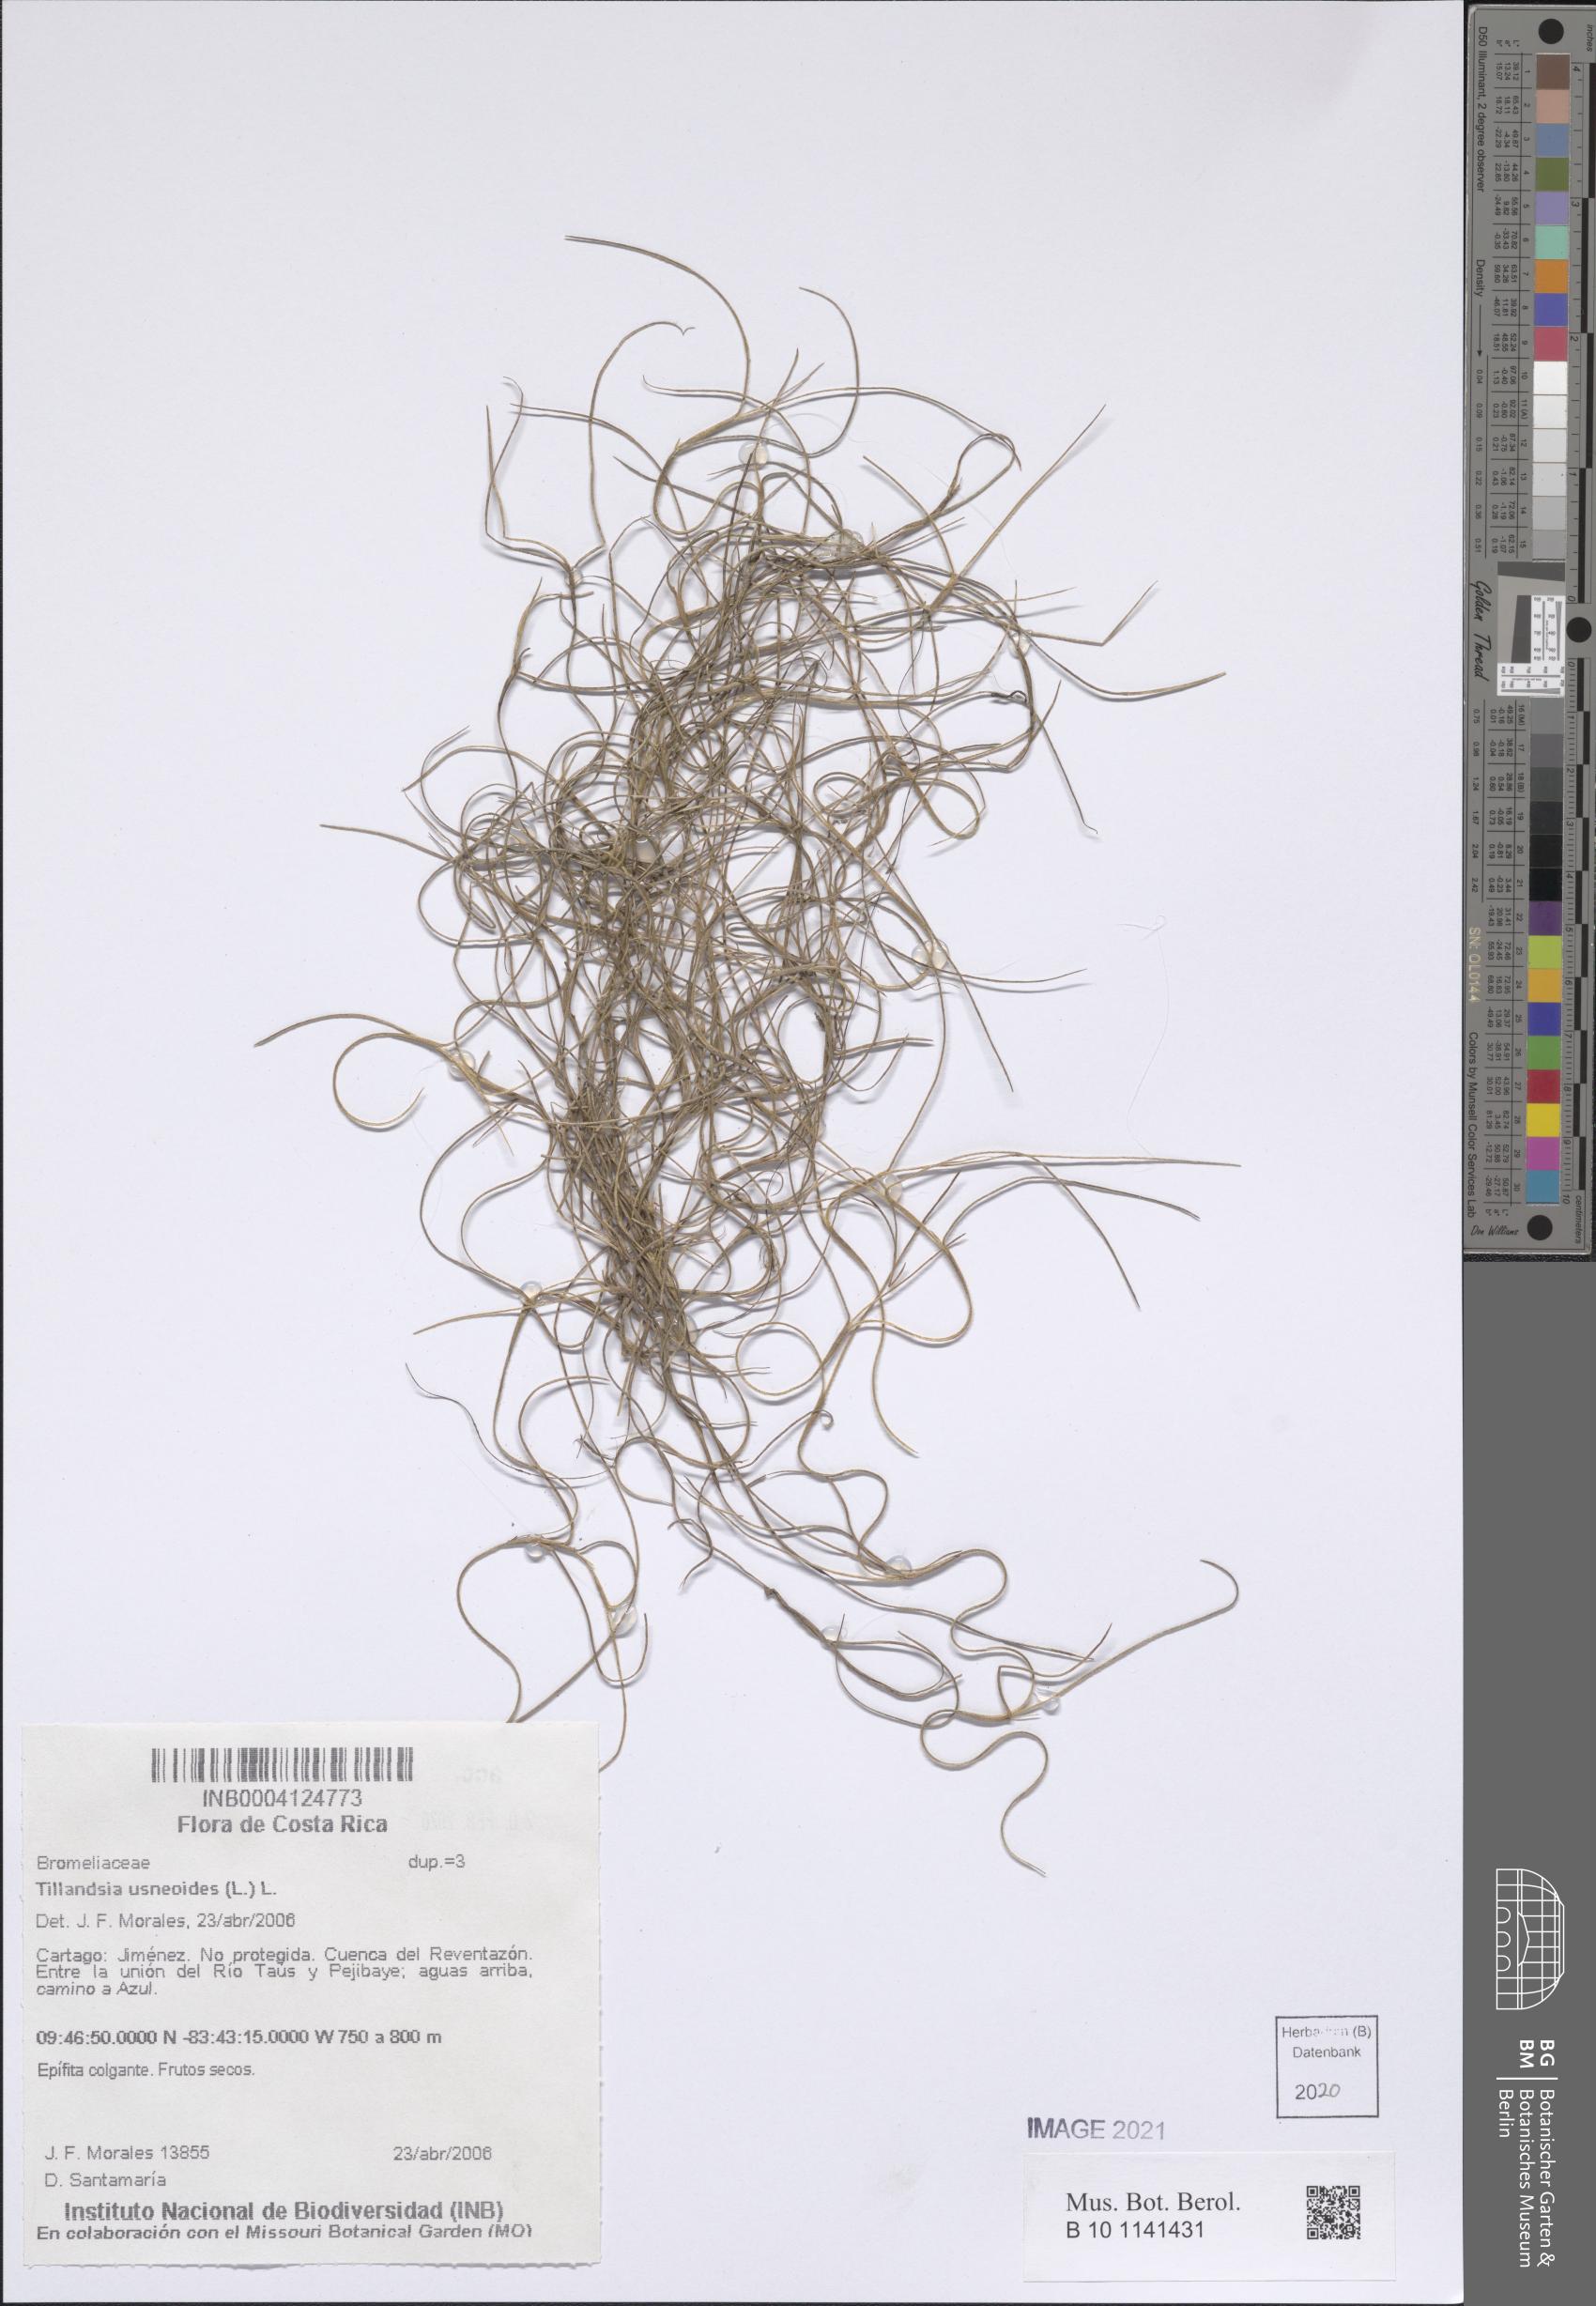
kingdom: Plantae
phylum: Tracheophyta
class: Liliopsida
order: Poales
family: Bromeliaceae
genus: Tillandsia
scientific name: Tillandsia usneoides
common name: Spanish moss
